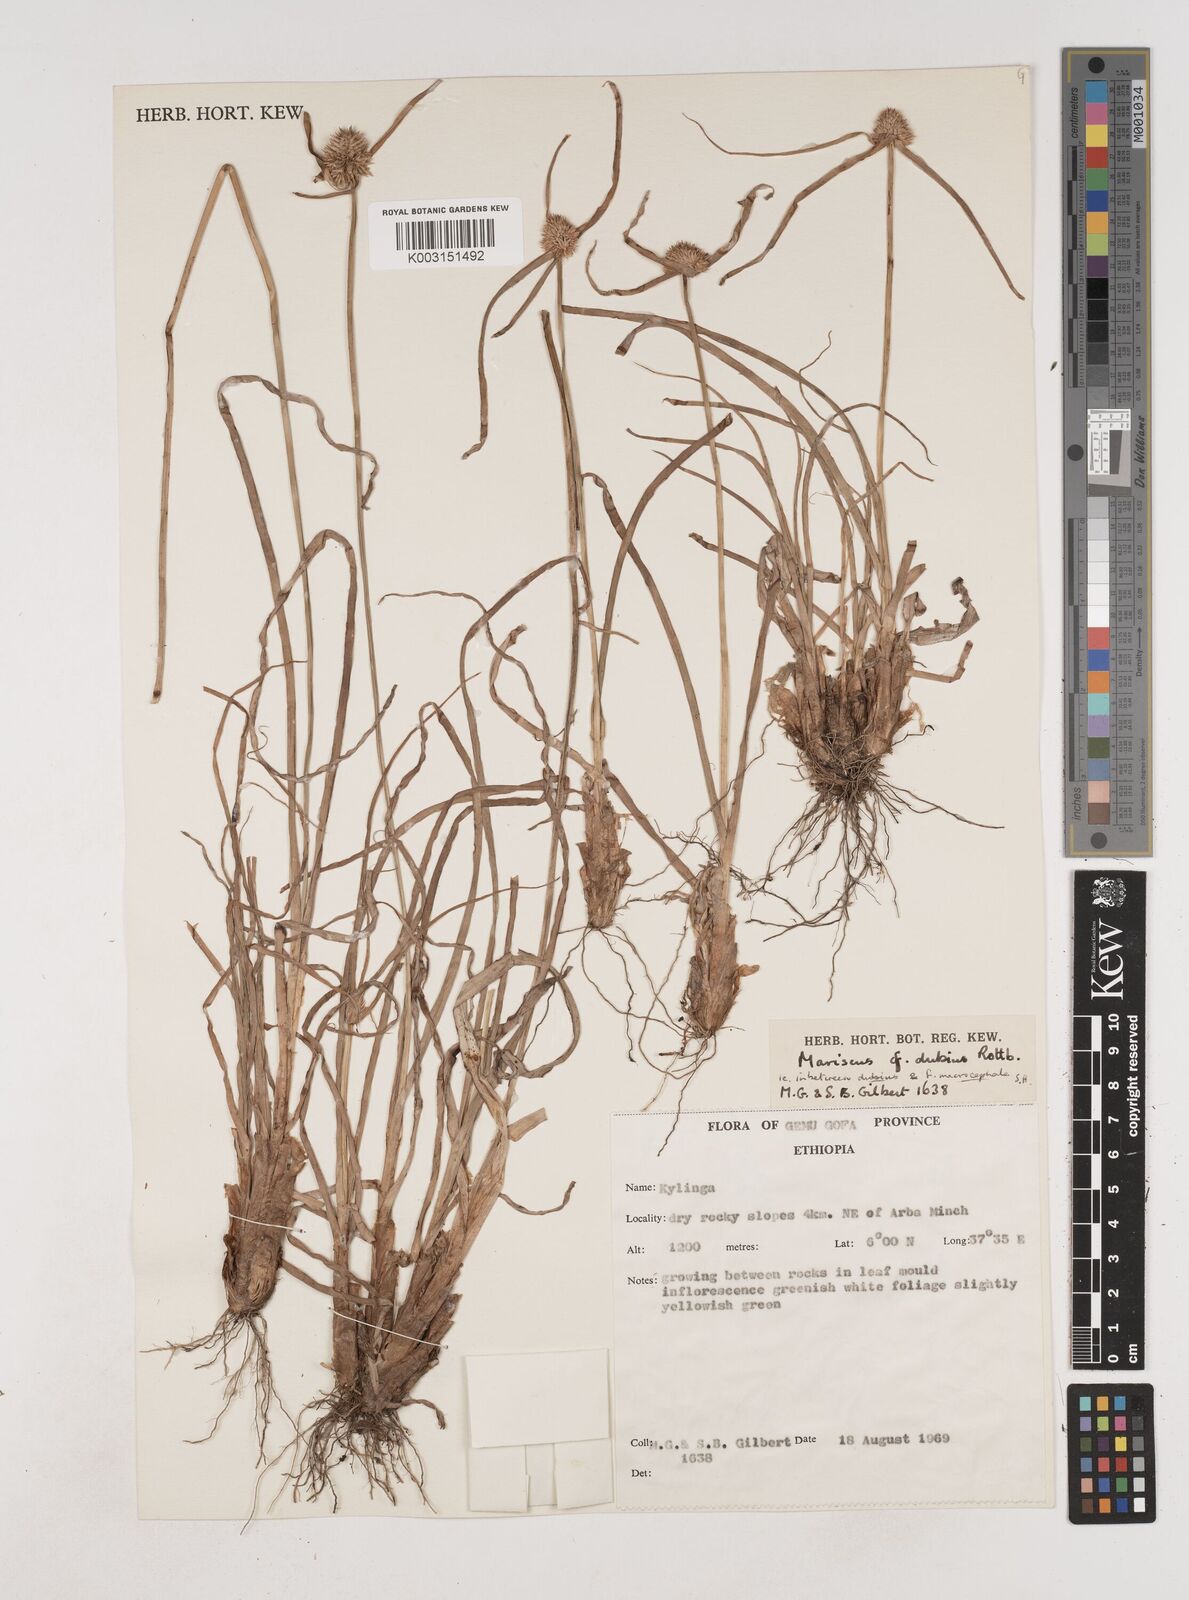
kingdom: Plantae
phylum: Tracheophyta
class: Liliopsida
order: Poales
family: Cyperaceae
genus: Cyperus
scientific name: Cyperus dubius
